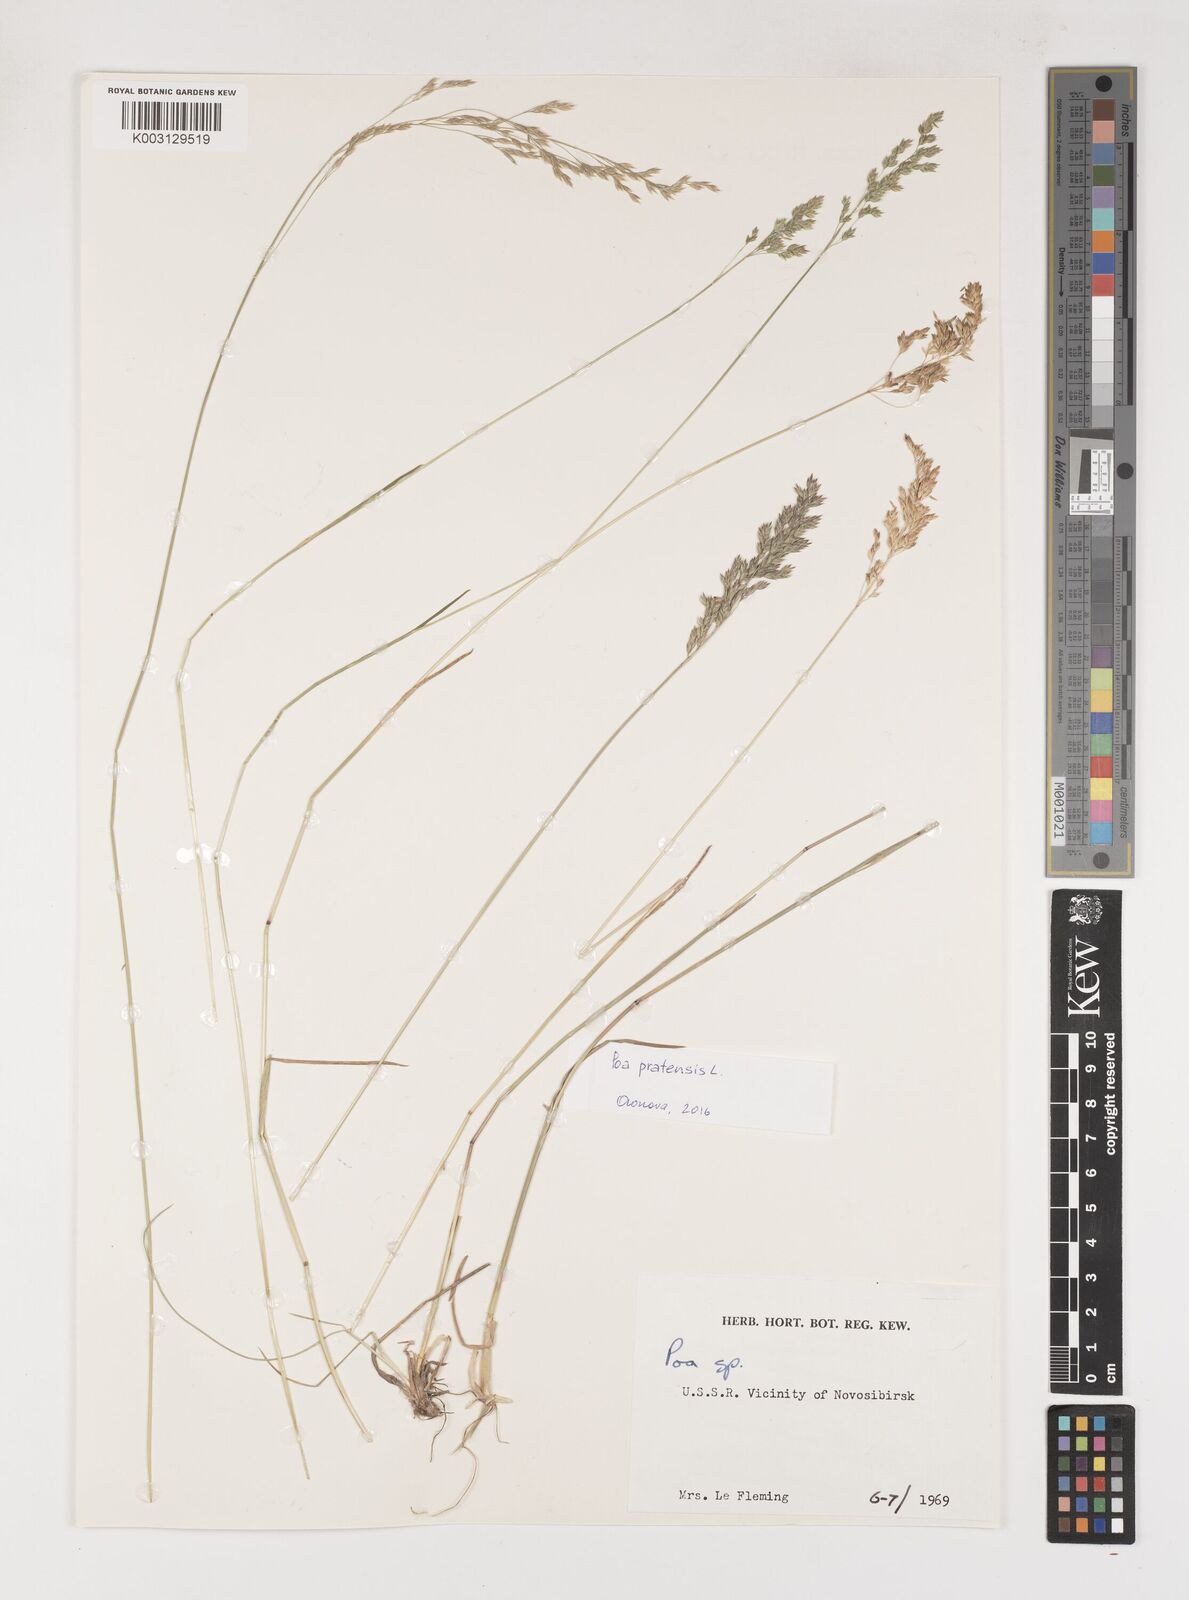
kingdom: Plantae
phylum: Tracheophyta
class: Liliopsida
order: Poales
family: Poaceae
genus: Poa
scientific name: Poa
